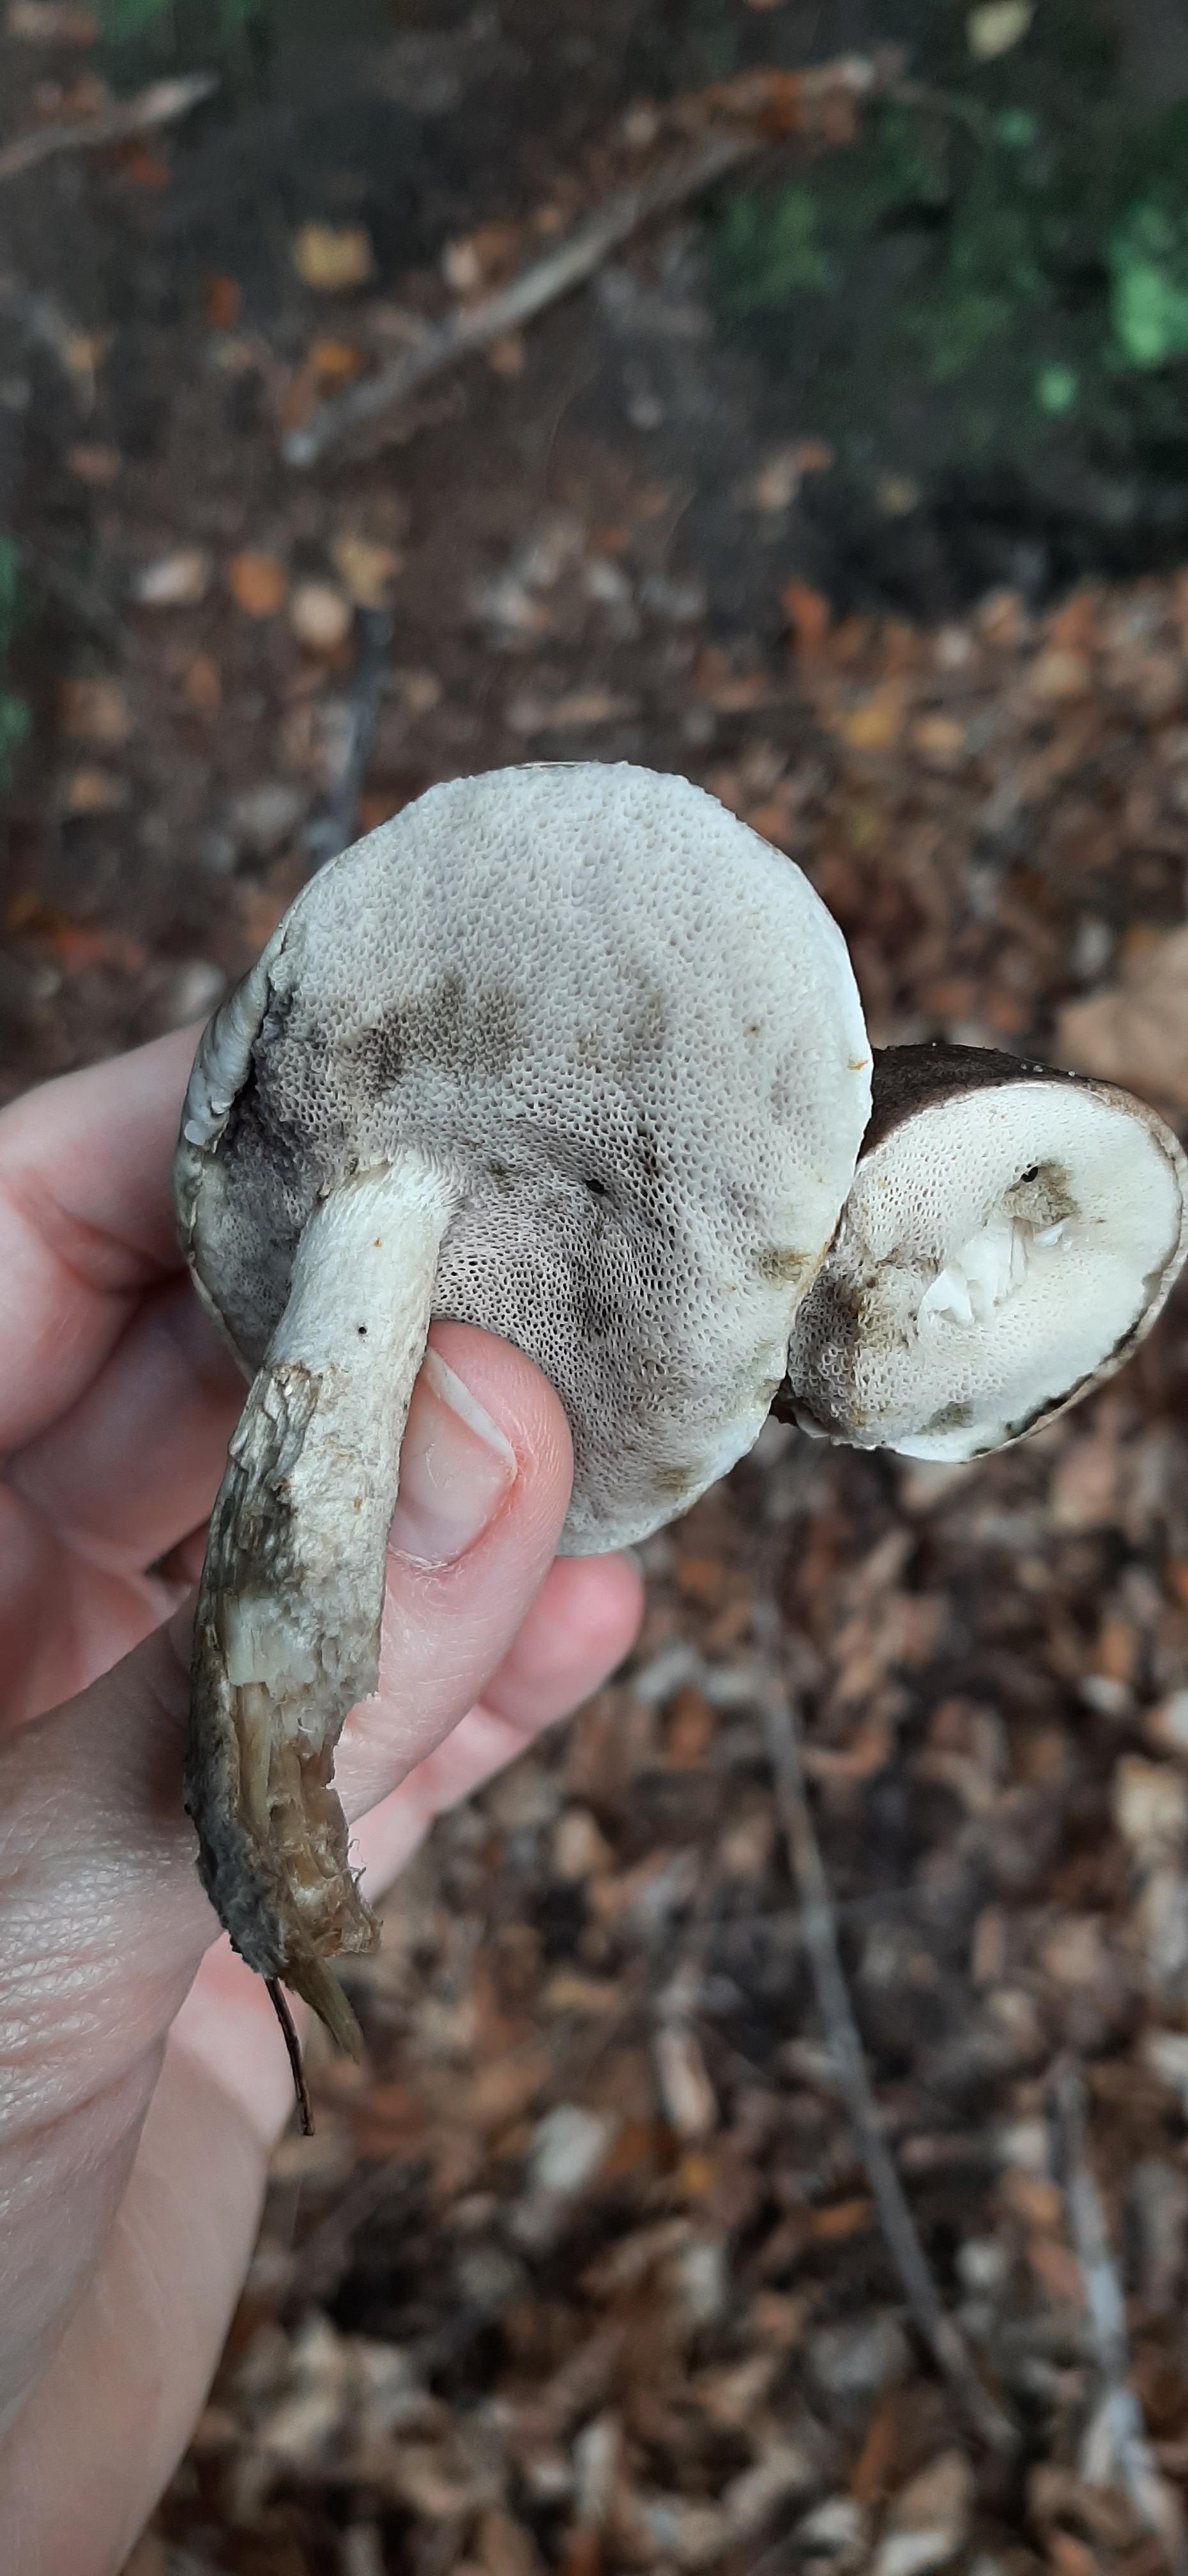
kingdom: Fungi
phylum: Basidiomycota
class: Agaricomycetes
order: Boletales
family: Boletaceae
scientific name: Boletaceae
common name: rørhatfamilien
